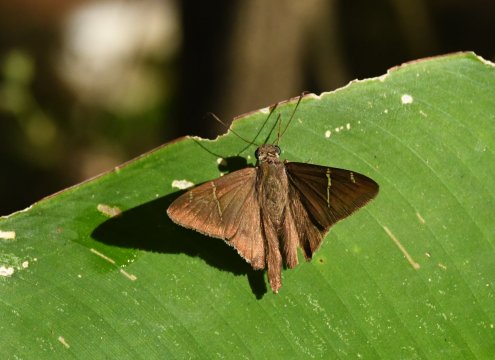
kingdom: Animalia
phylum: Arthropoda
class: Insecta
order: Lepidoptera
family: Hesperiidae
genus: Urbanus
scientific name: Urbanus teleus
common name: Teleus Longtail
